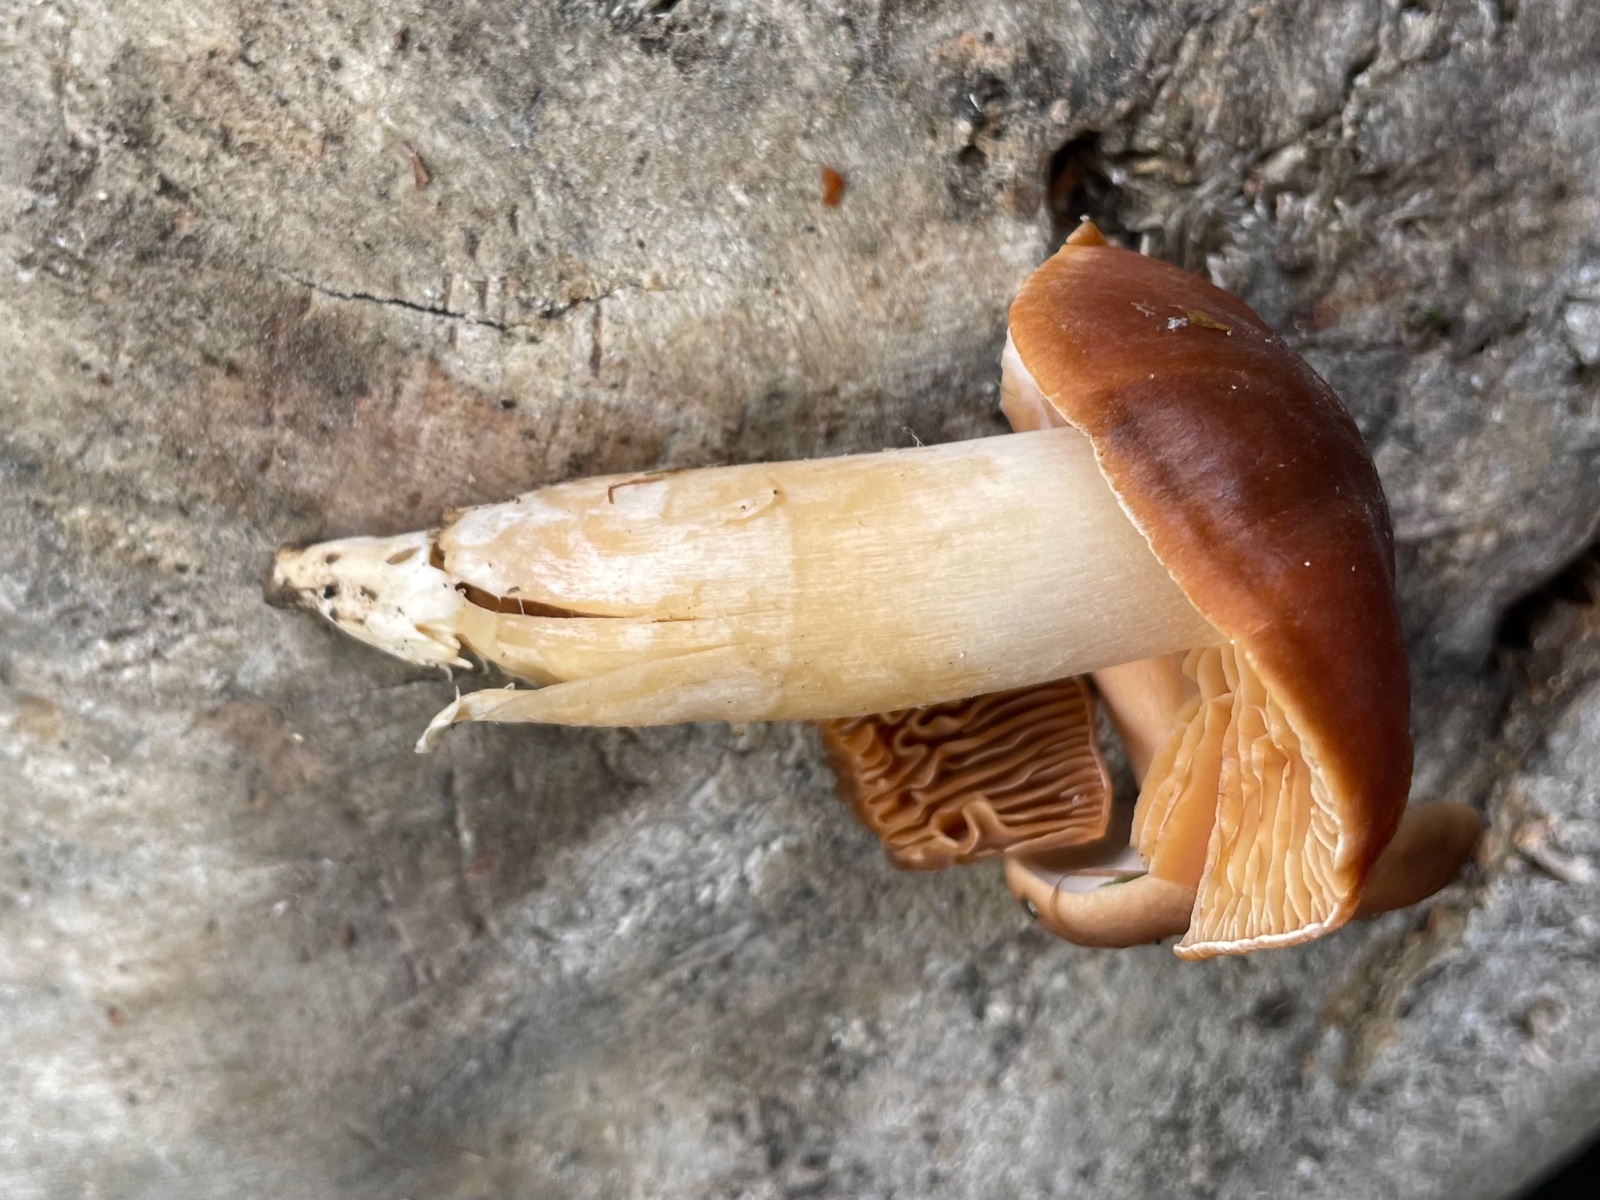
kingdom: Fungi
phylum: Basidiomycota
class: Agaricomycetes
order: Agaricales
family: Cortinariaceae
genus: Cortinarius
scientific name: Cortinarius
